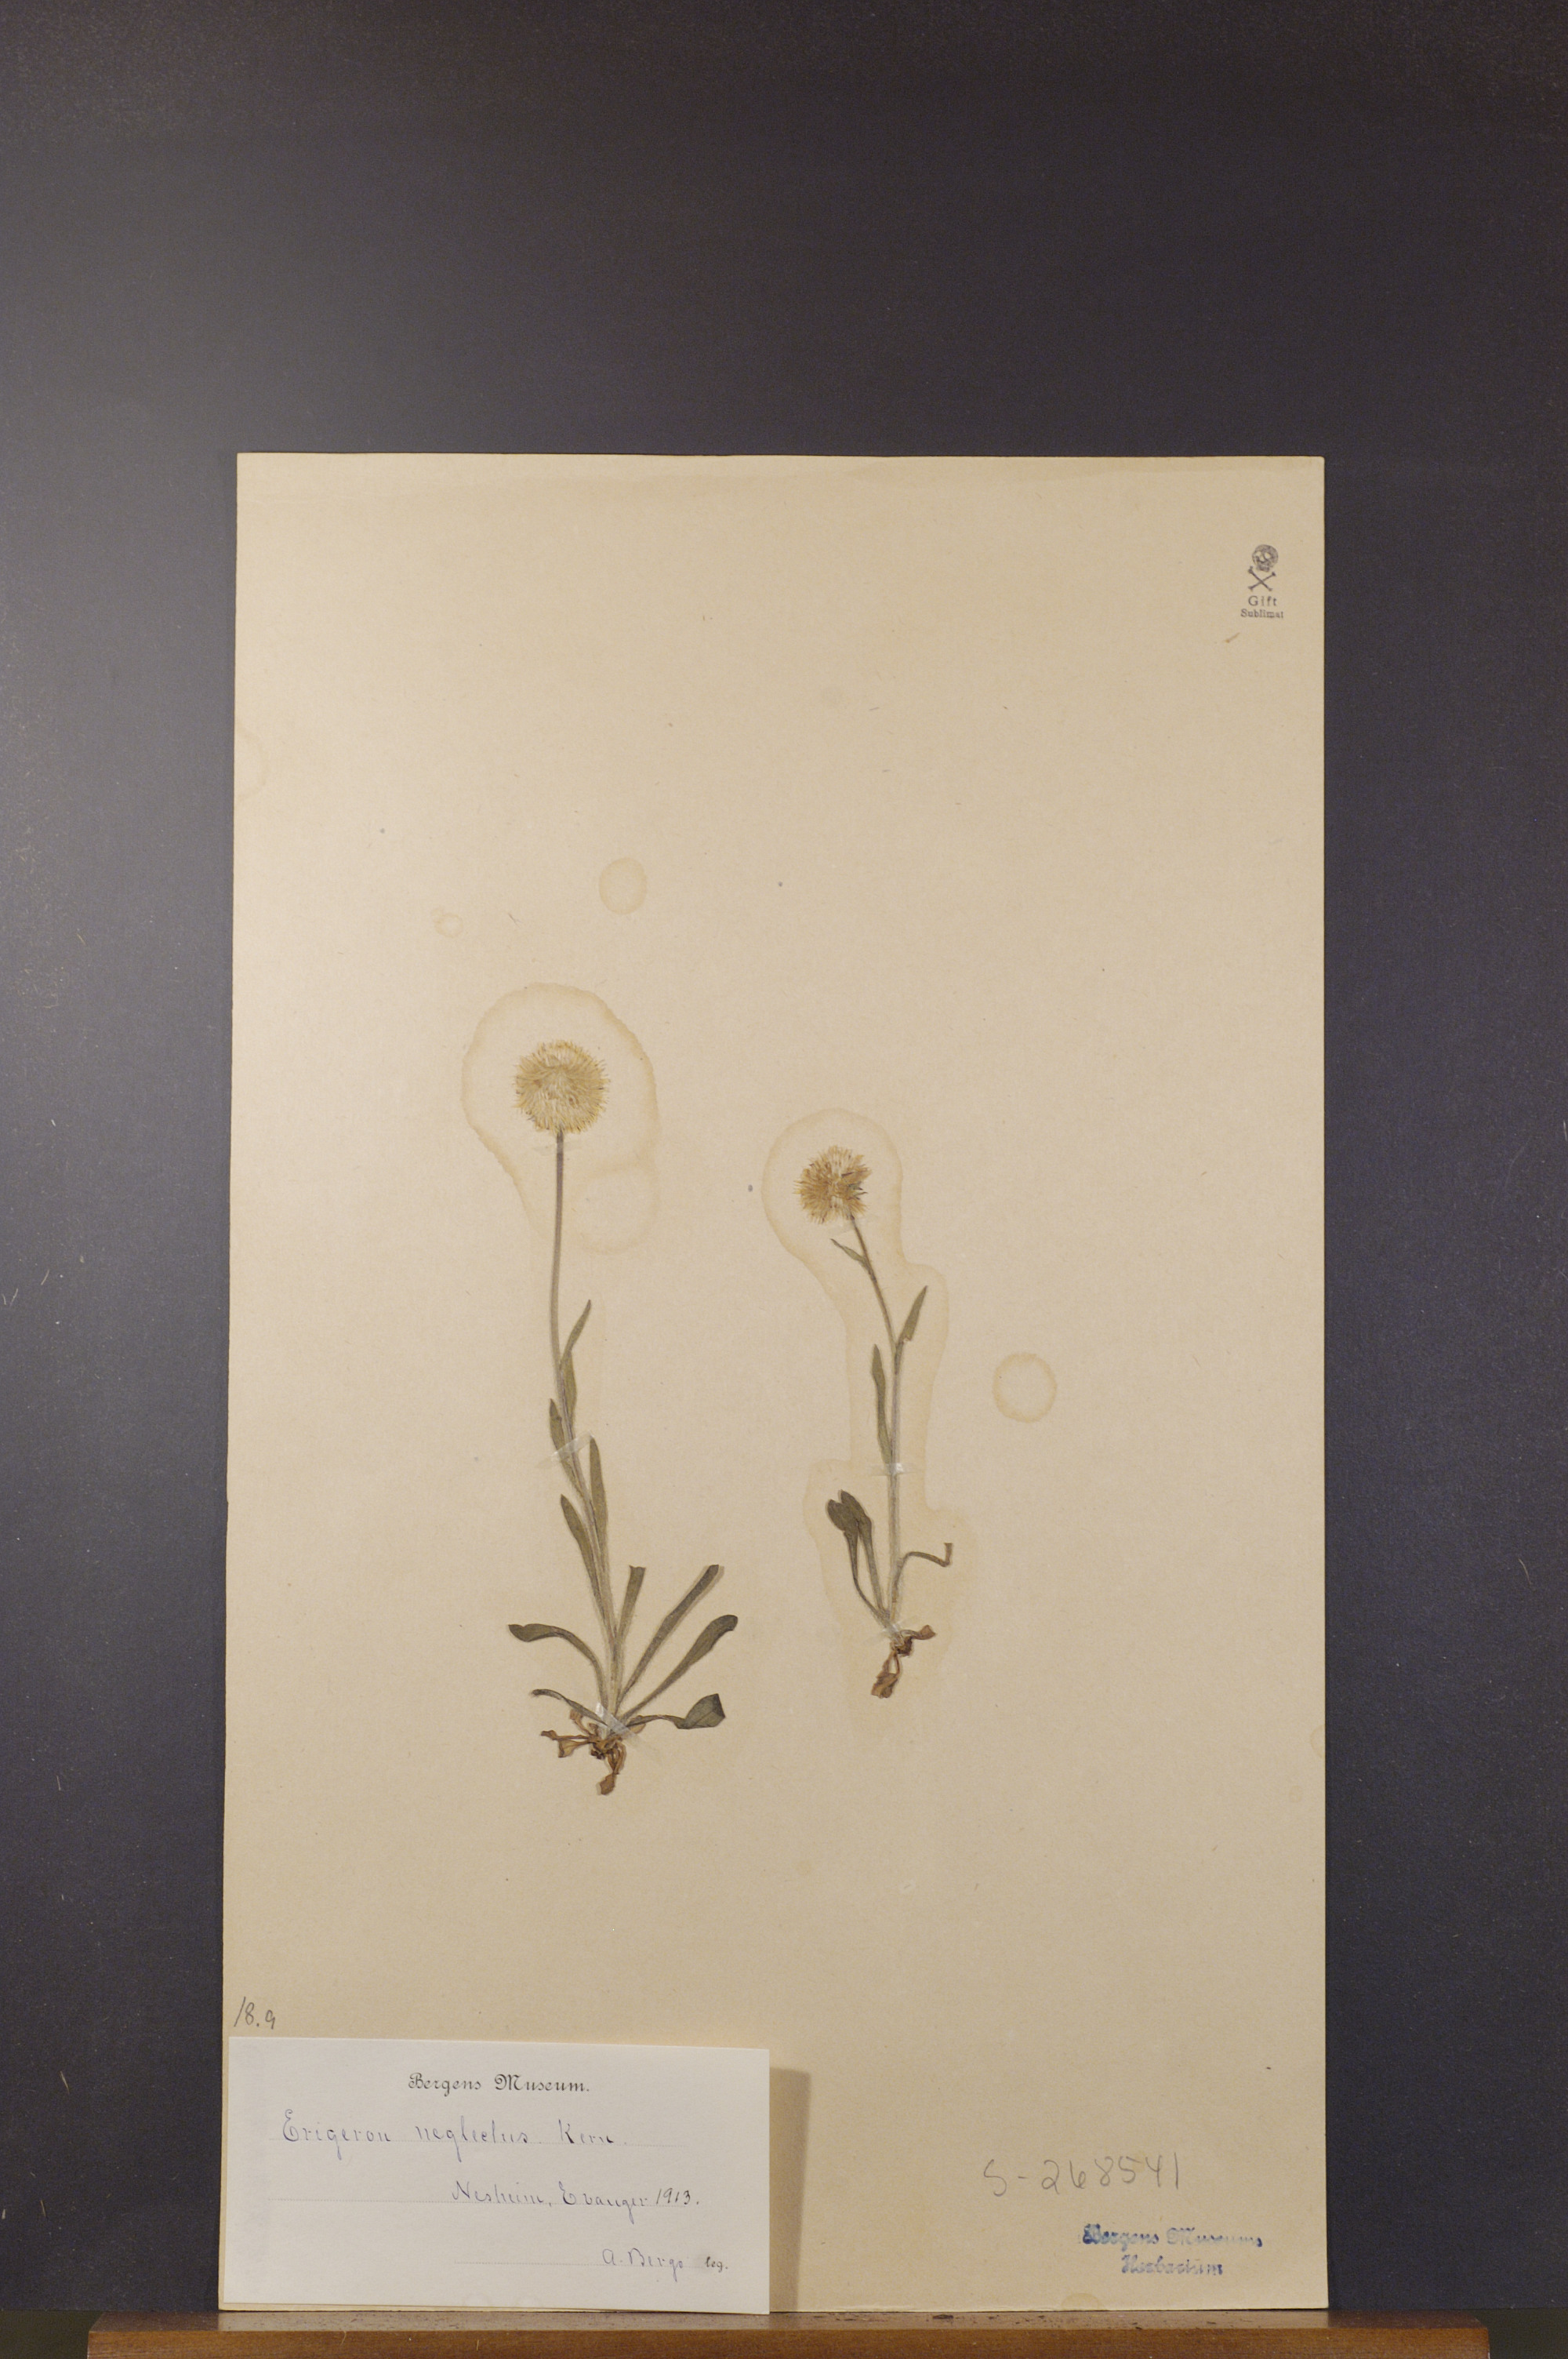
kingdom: Plantae
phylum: Tracheophyta
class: Magnoliopsida
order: Asterales
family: Asteraceae
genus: Erigeron
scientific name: Erigeron neglectus
